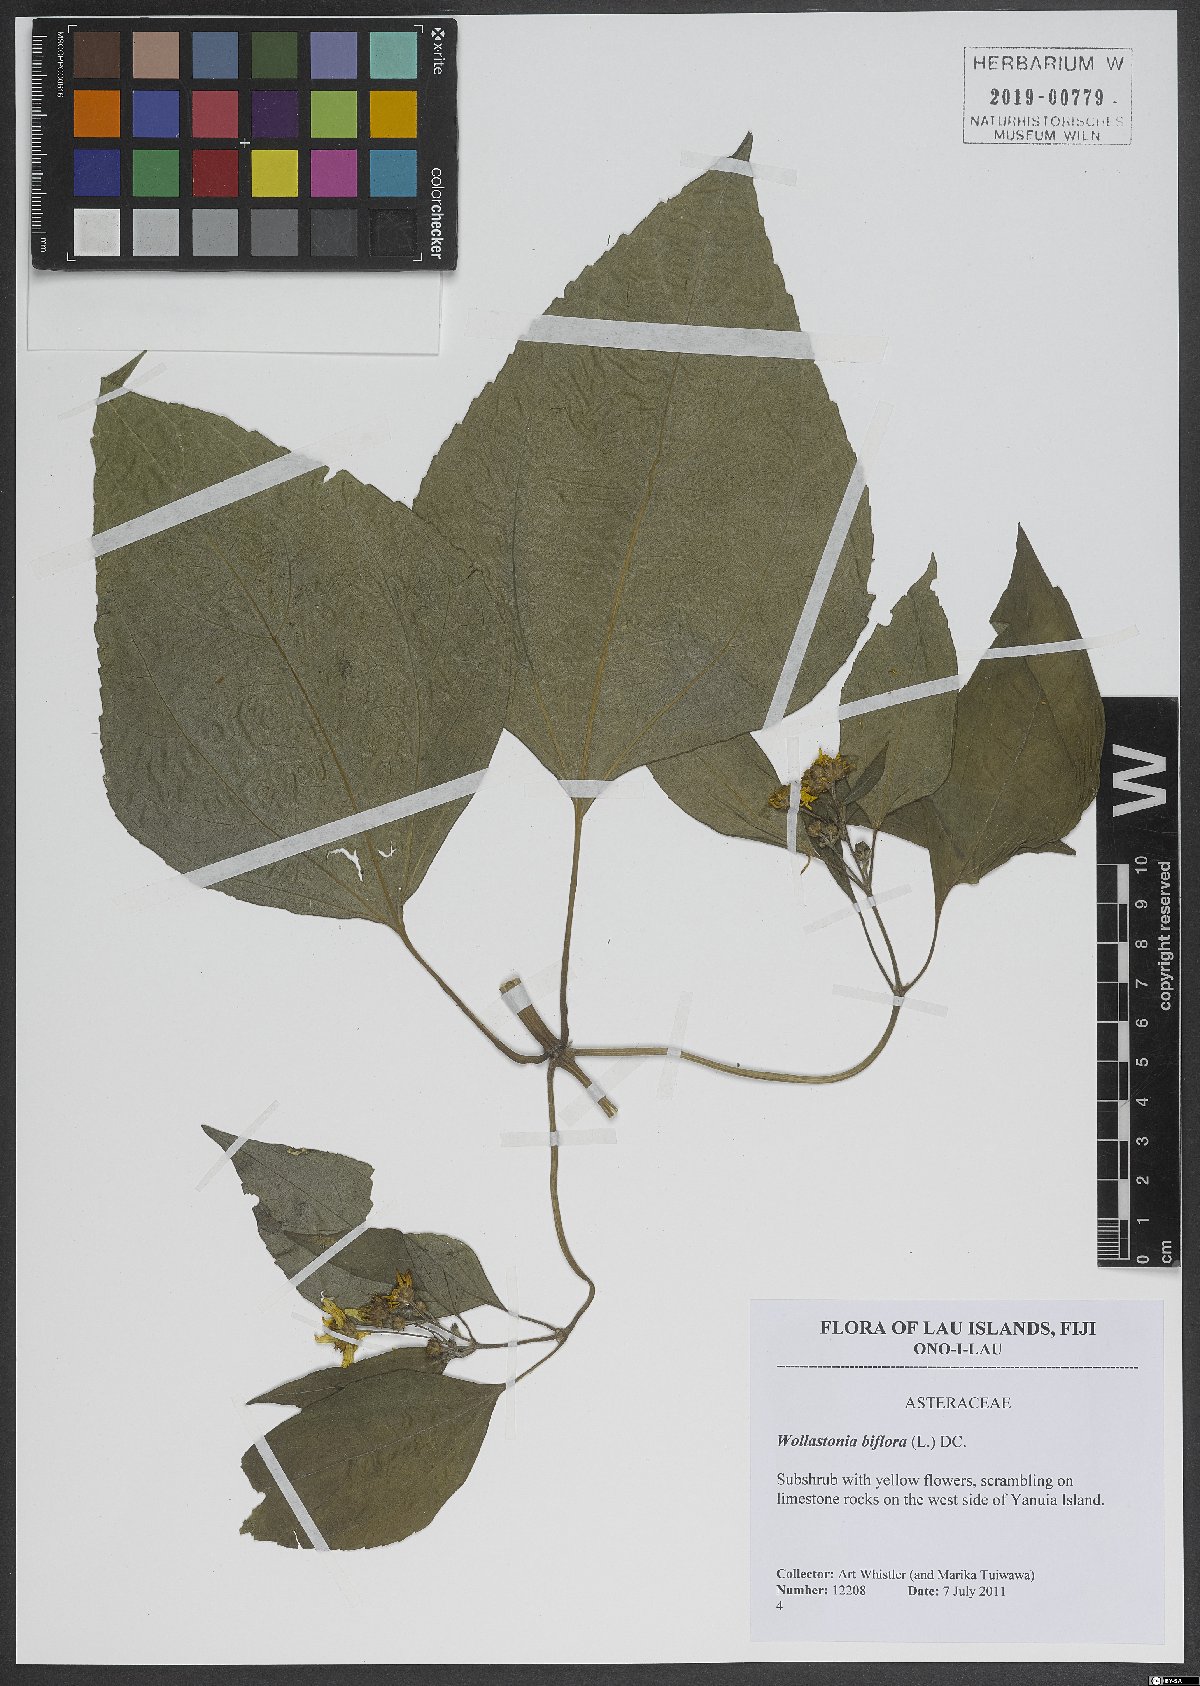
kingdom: Plantae
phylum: Tracheophyta
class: Magnoliopsida
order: Asterales
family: Asteraceae
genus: Wollastonia
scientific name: Wollastonia biflora
